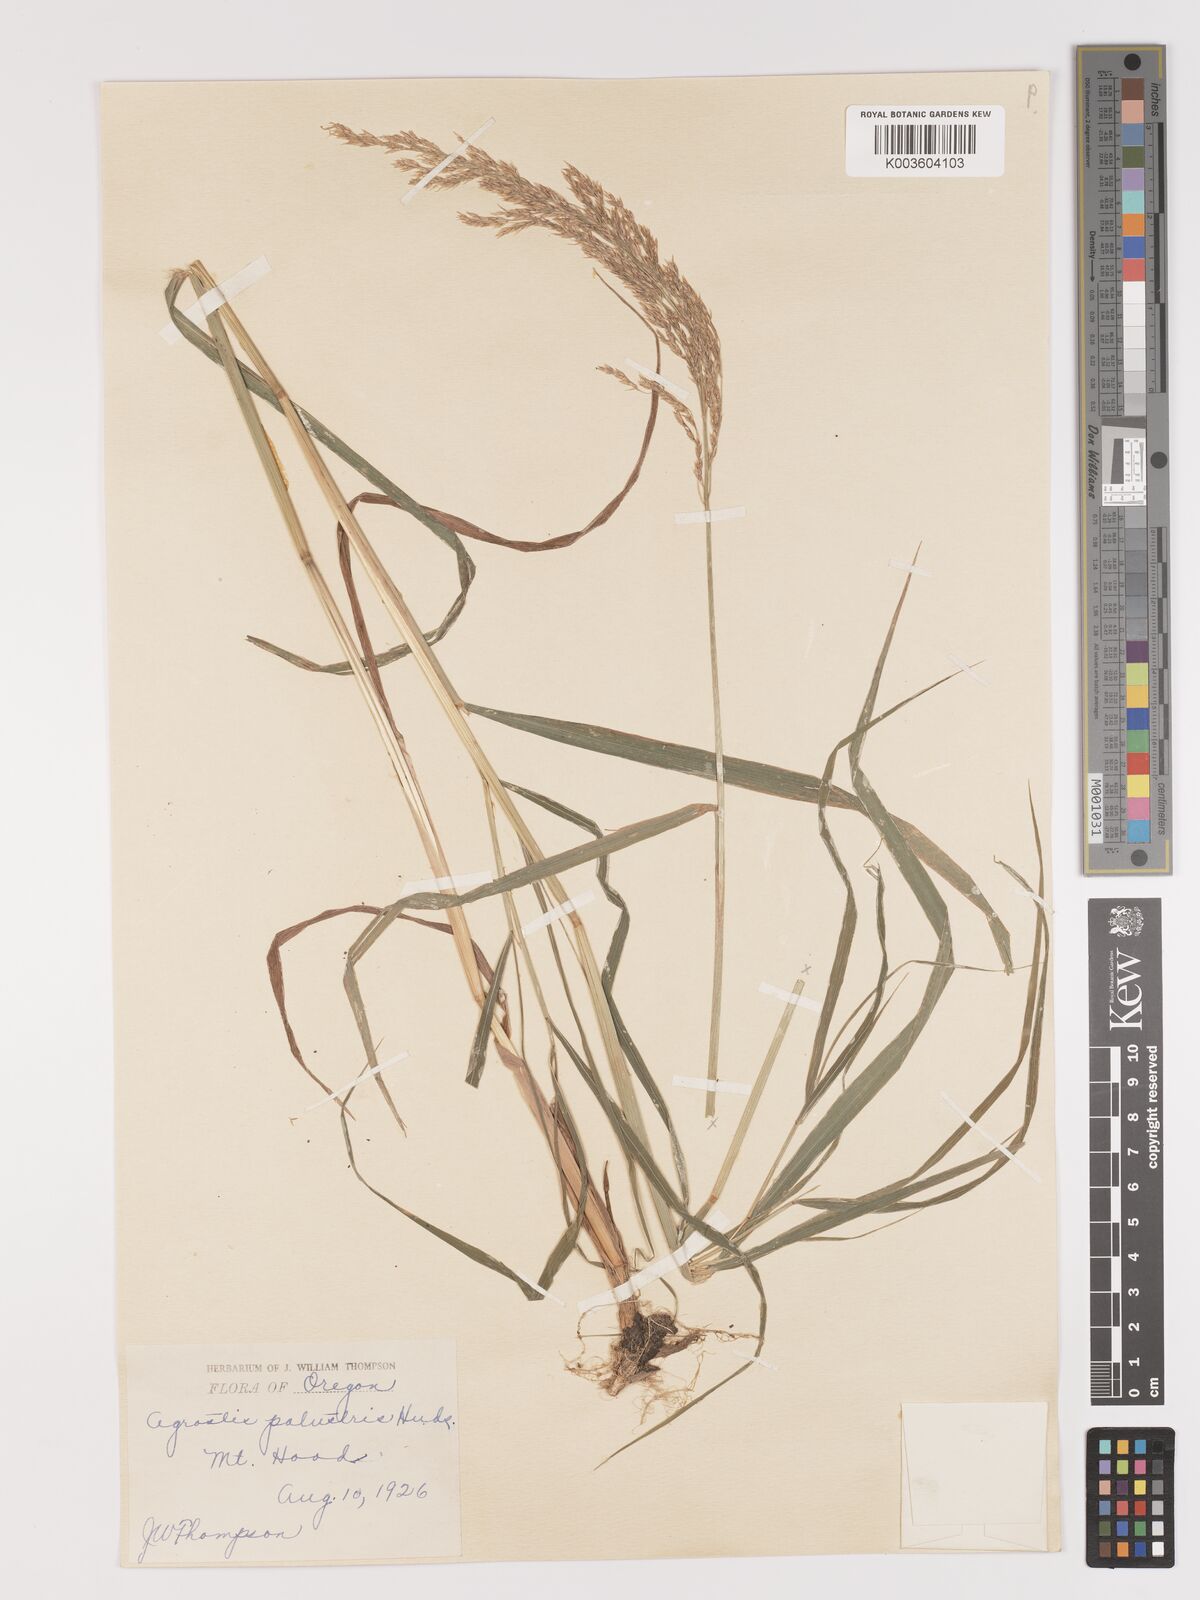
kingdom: Plantae
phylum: Tracheophyta
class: Liliopsida
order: Poales
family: Poaceae
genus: Agrostis
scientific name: Agrostis gigantea
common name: Black bent
